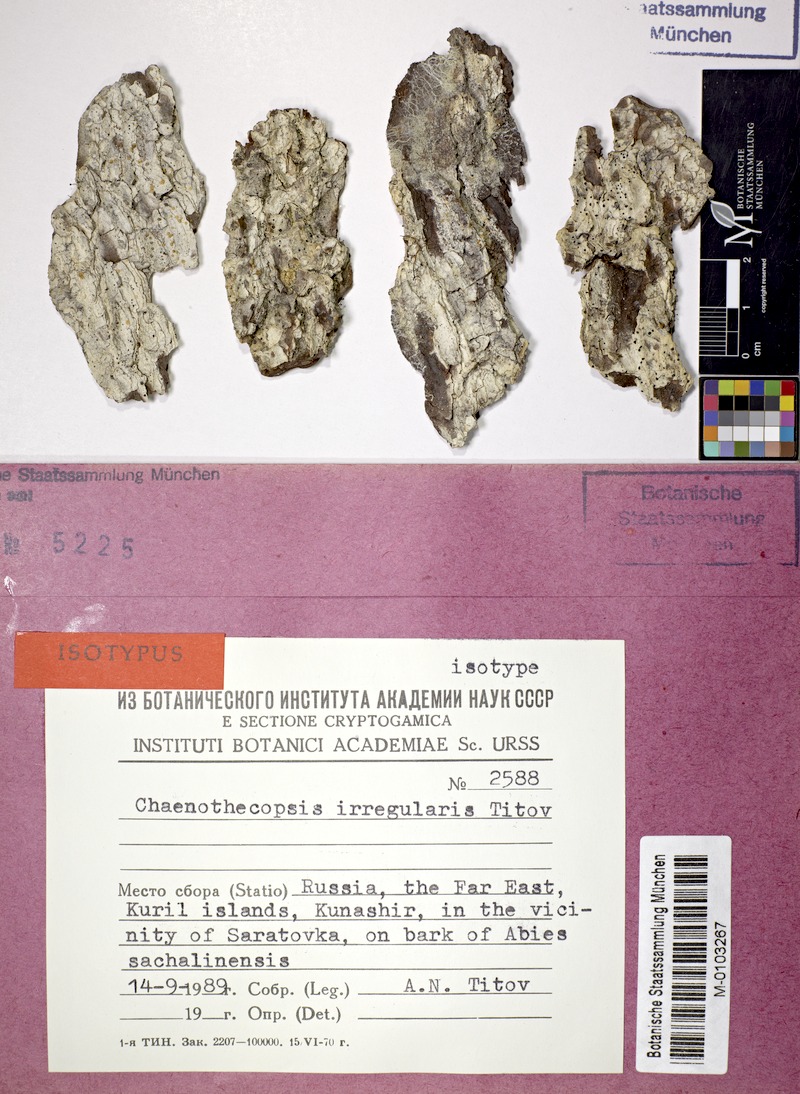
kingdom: Fungi
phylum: Ascomycota
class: Eurotiomycetes
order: Mycocaliciales
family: Mycocaliciaceae
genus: Chaenothecopsis
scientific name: Chaenothecopsis irregularis
